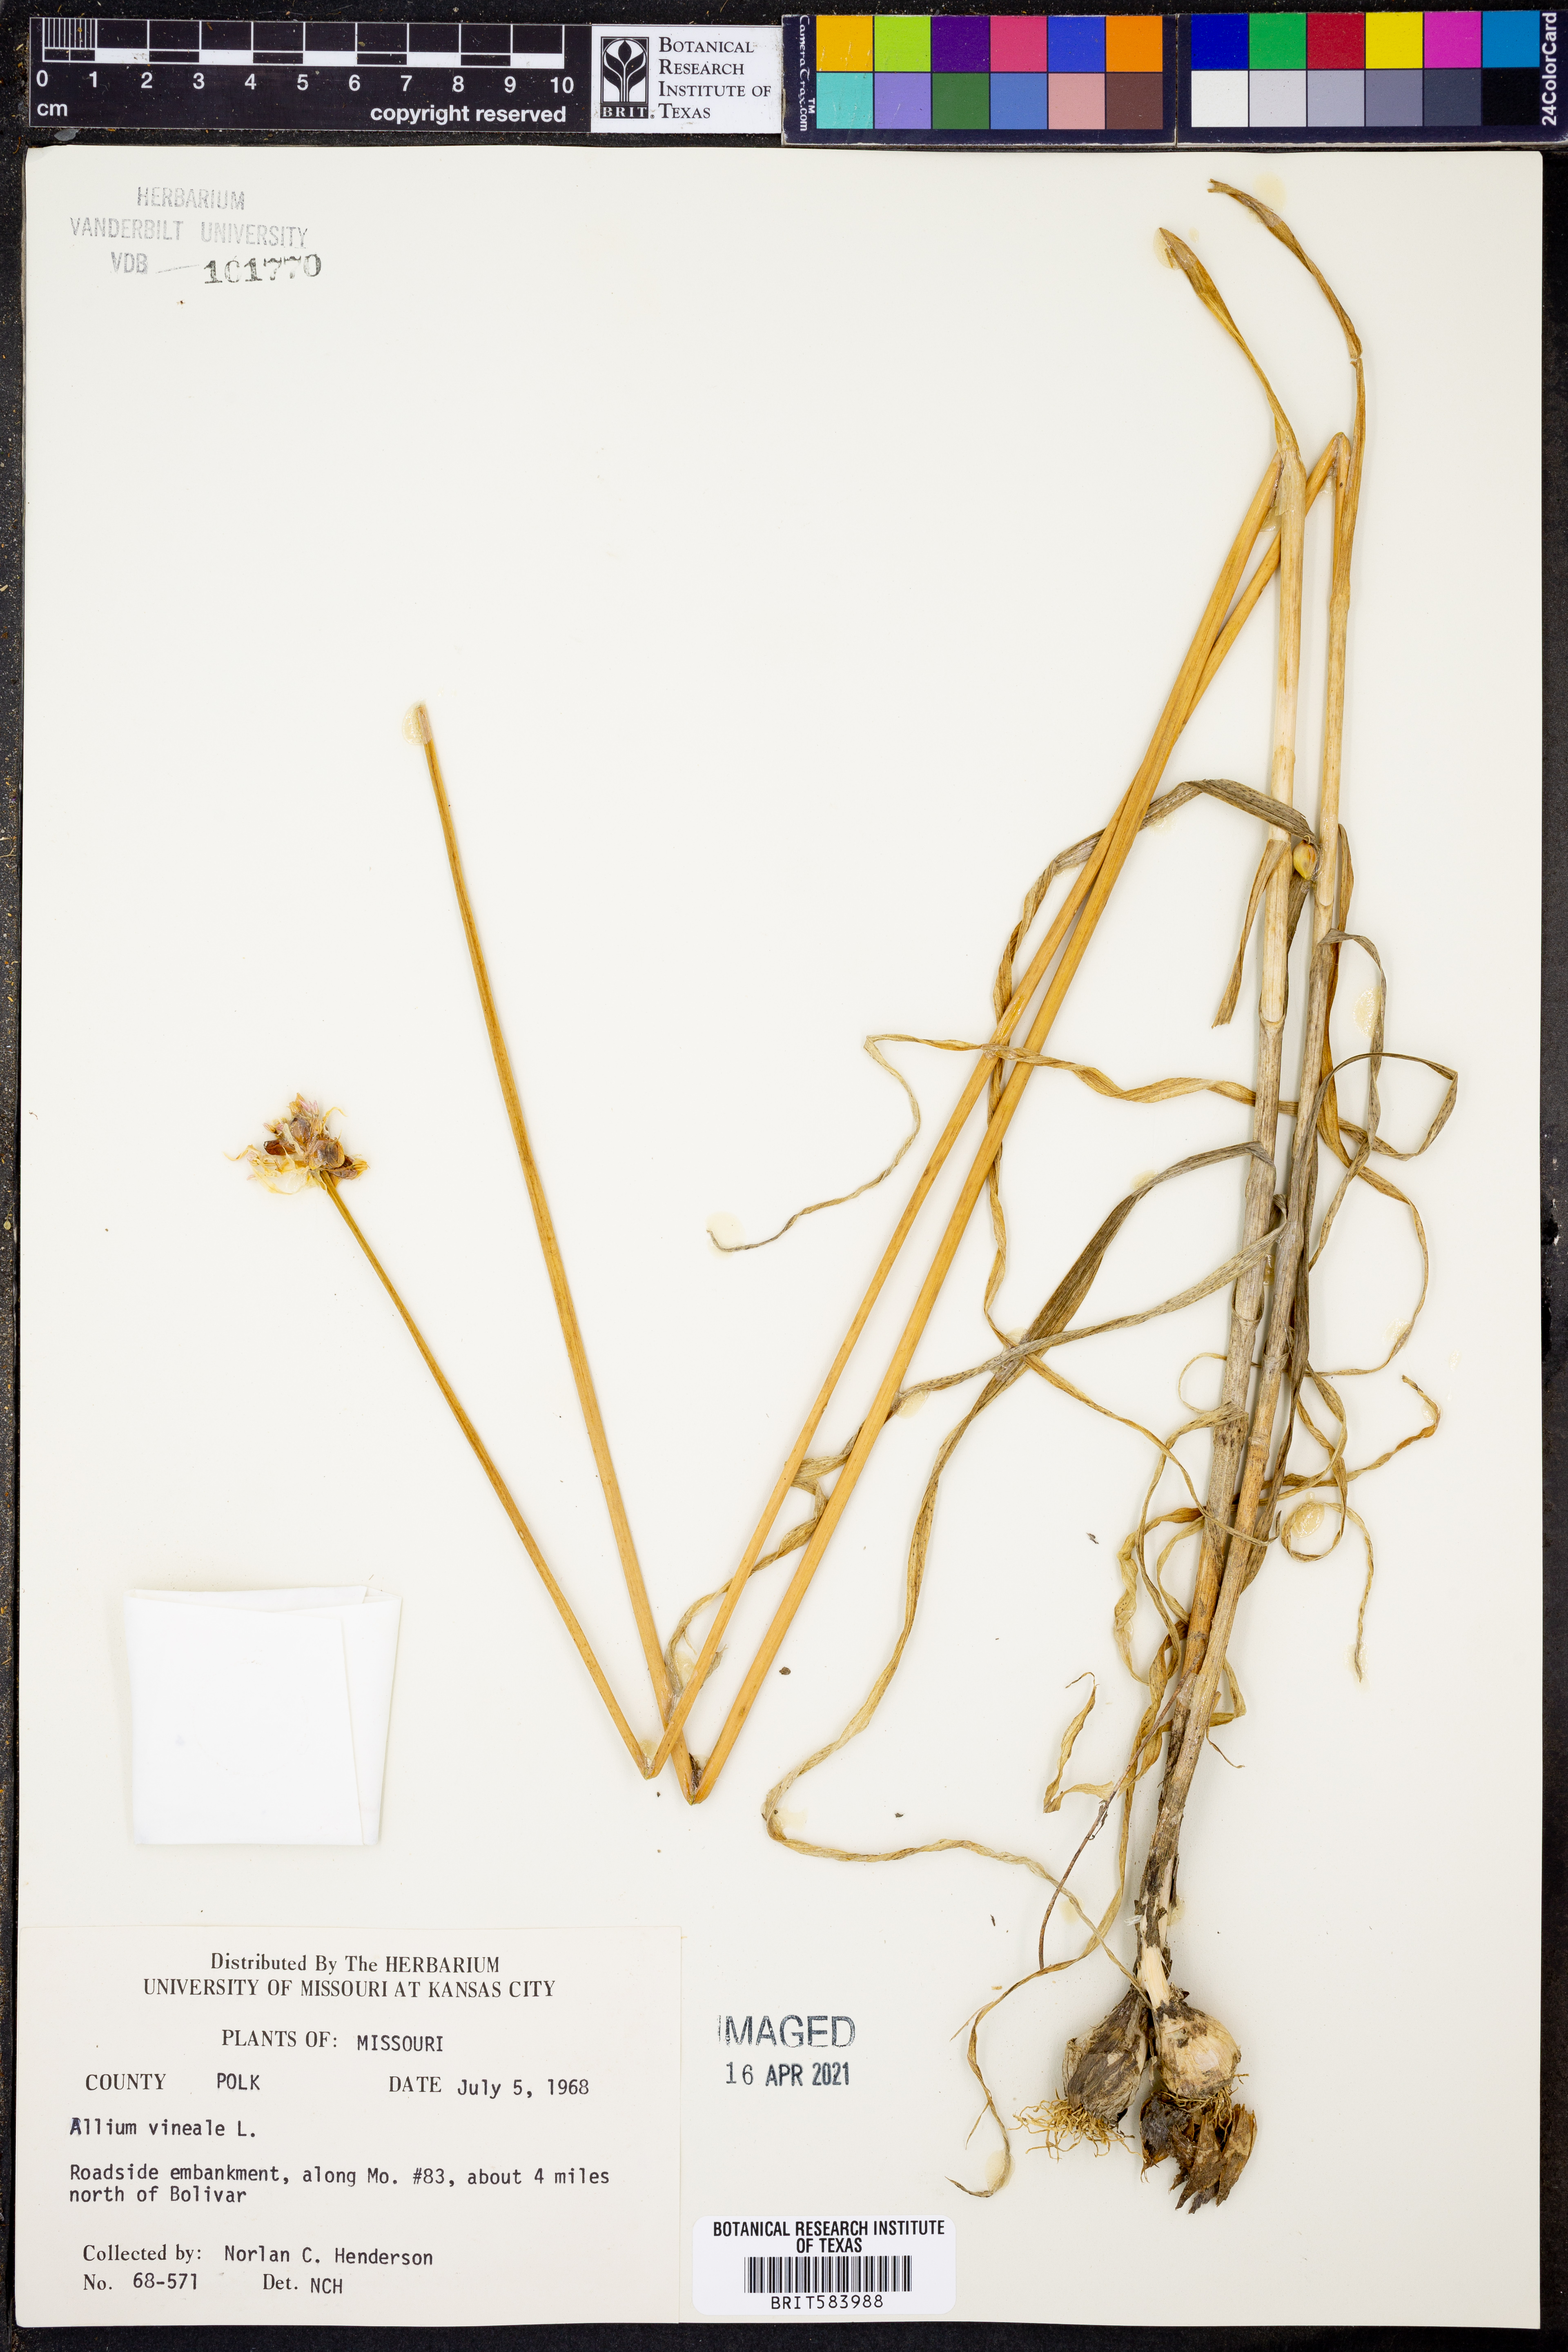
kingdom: Plantae
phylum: Tracheophyta
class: Liliopsida
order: Asparagales
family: Amaryllidaceae
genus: Allium
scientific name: Allium vineale
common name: Crow garlic
